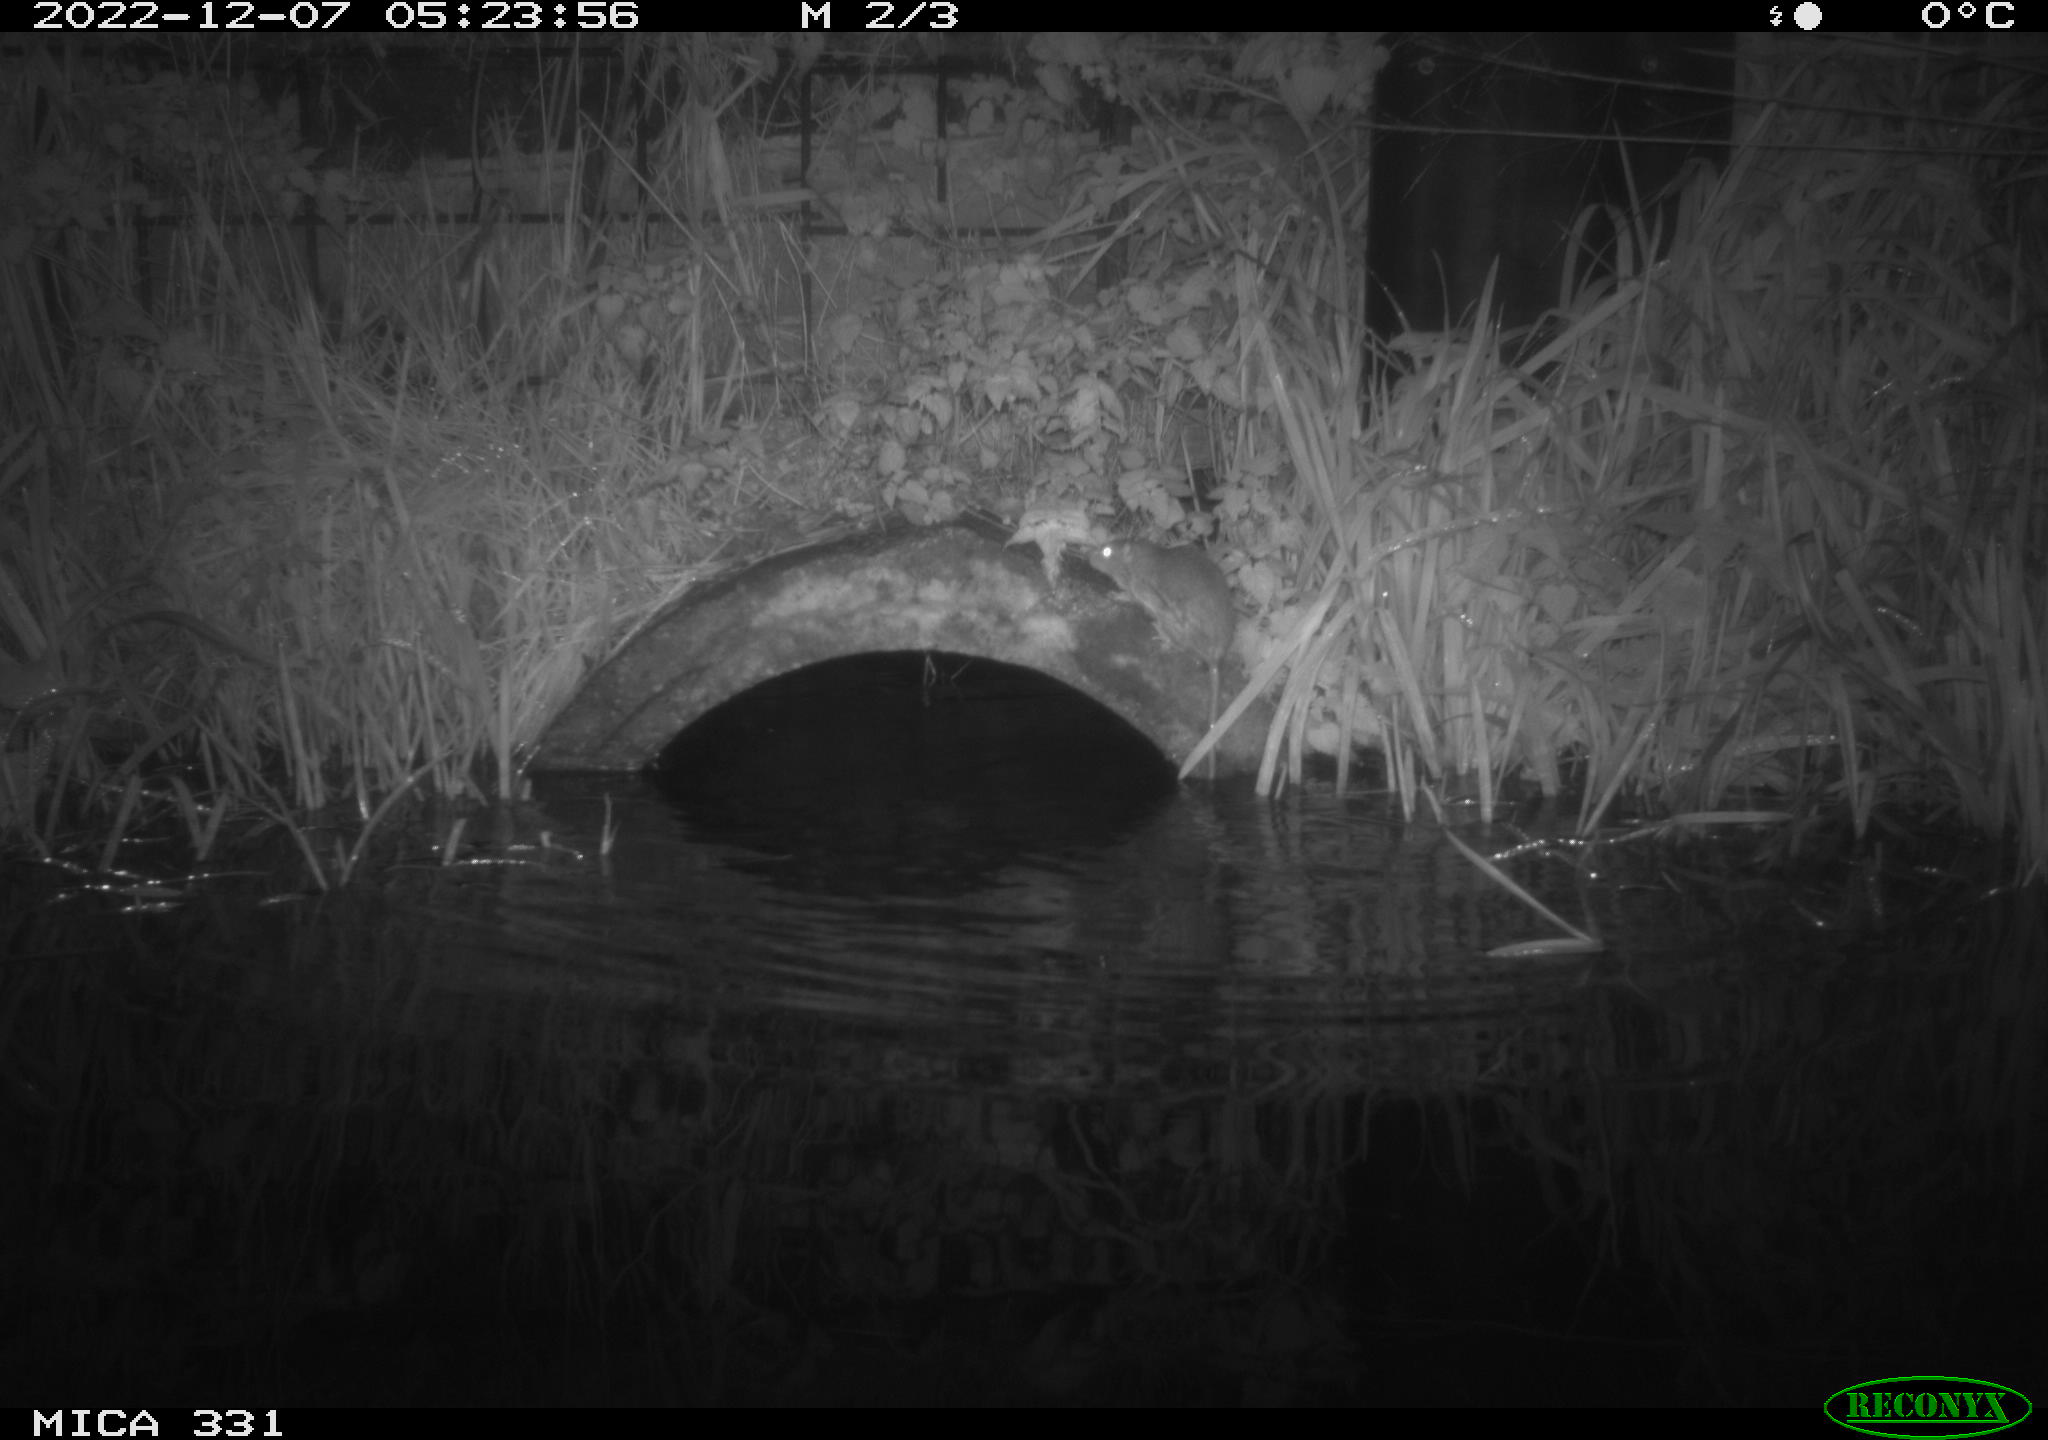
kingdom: Animalia
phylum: Chordata
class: Mammalia
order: Rodentia
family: Muridae
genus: Rattus
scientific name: Rattus norvegicus
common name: Brown rat
